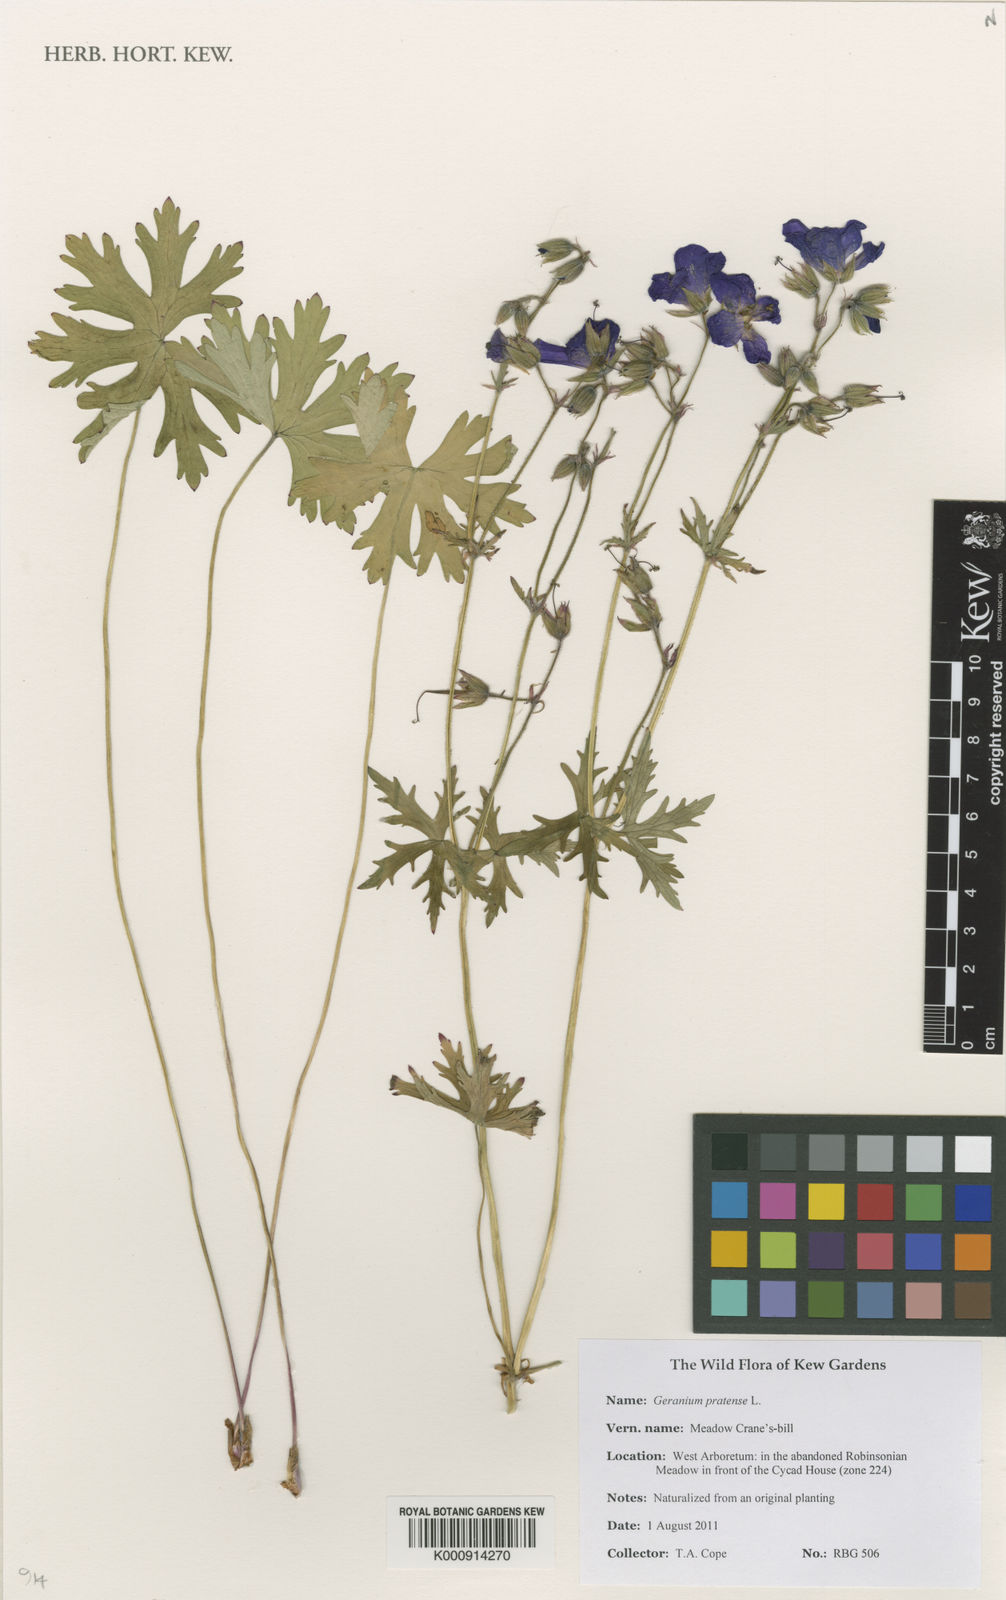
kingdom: Plantae
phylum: Tracheophyta
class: Magnoliopsida
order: Geraniales
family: Geraniaceae
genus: Geranium
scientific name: Geranium pratense
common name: Meadow crane's-bill
